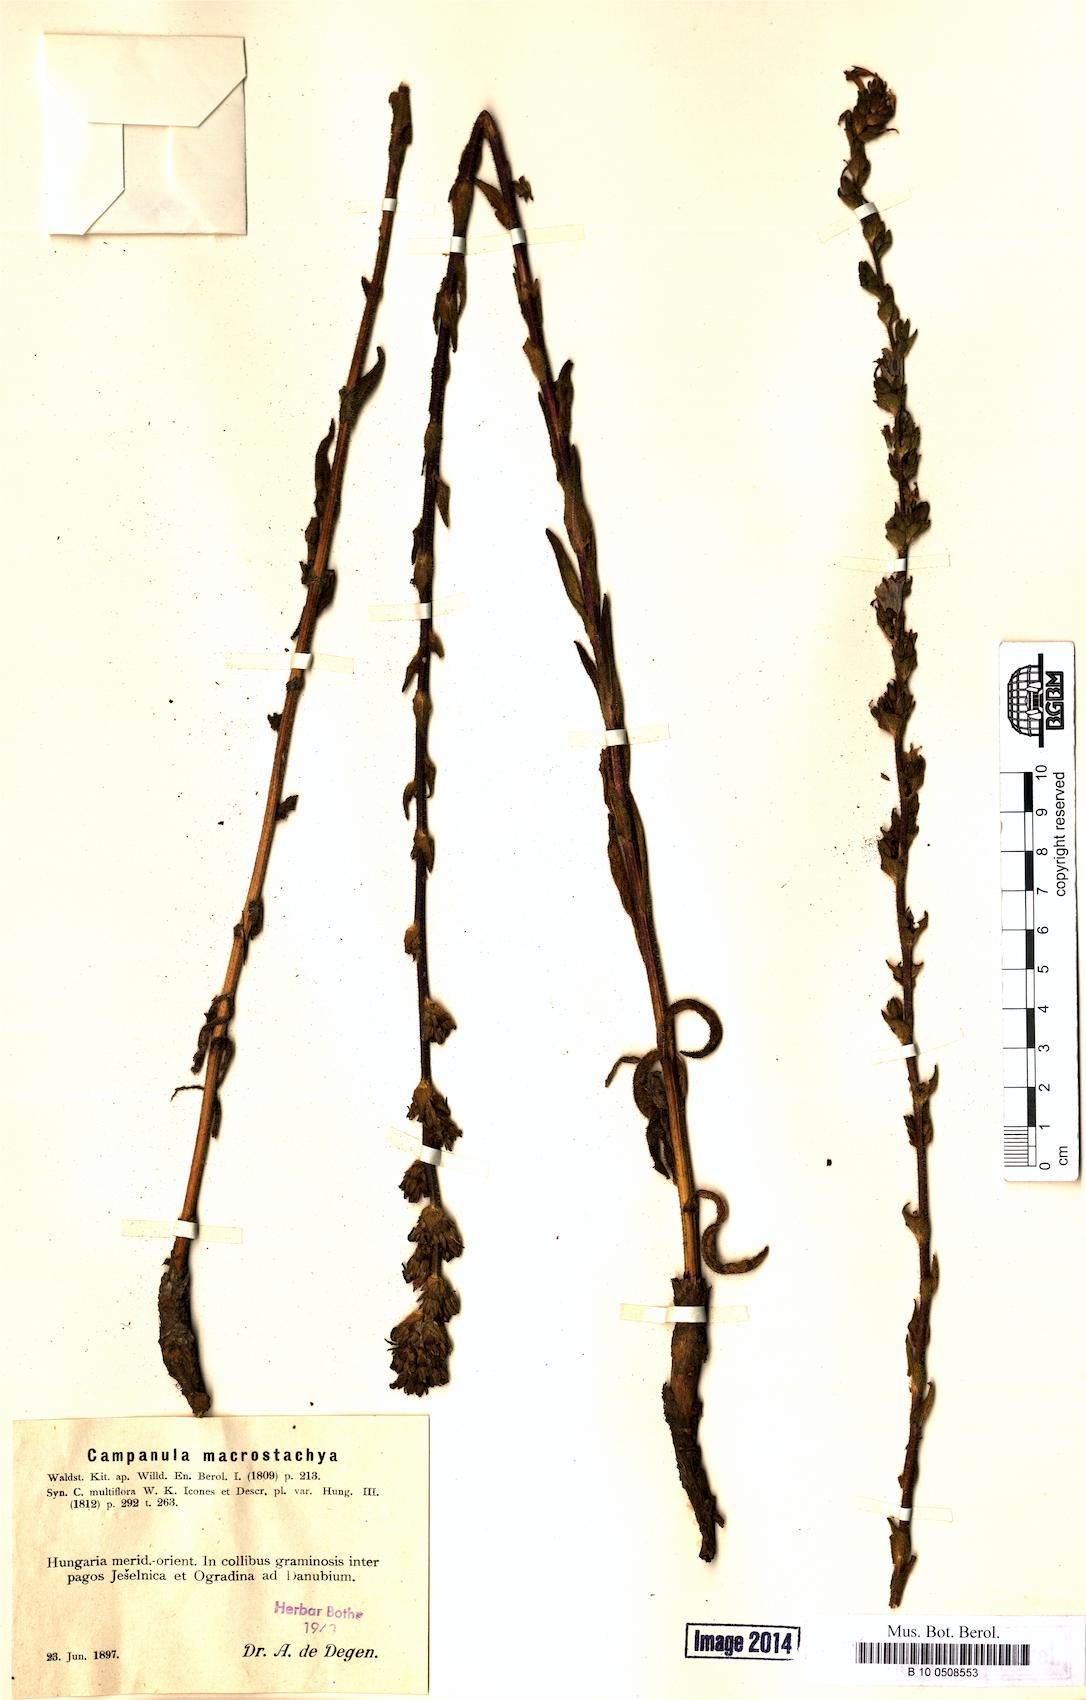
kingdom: Plantae
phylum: Tracheophyta
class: Magnoliopsida
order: Asterales
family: Campanulaceae
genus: Campanula
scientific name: Campanula macrostachya
